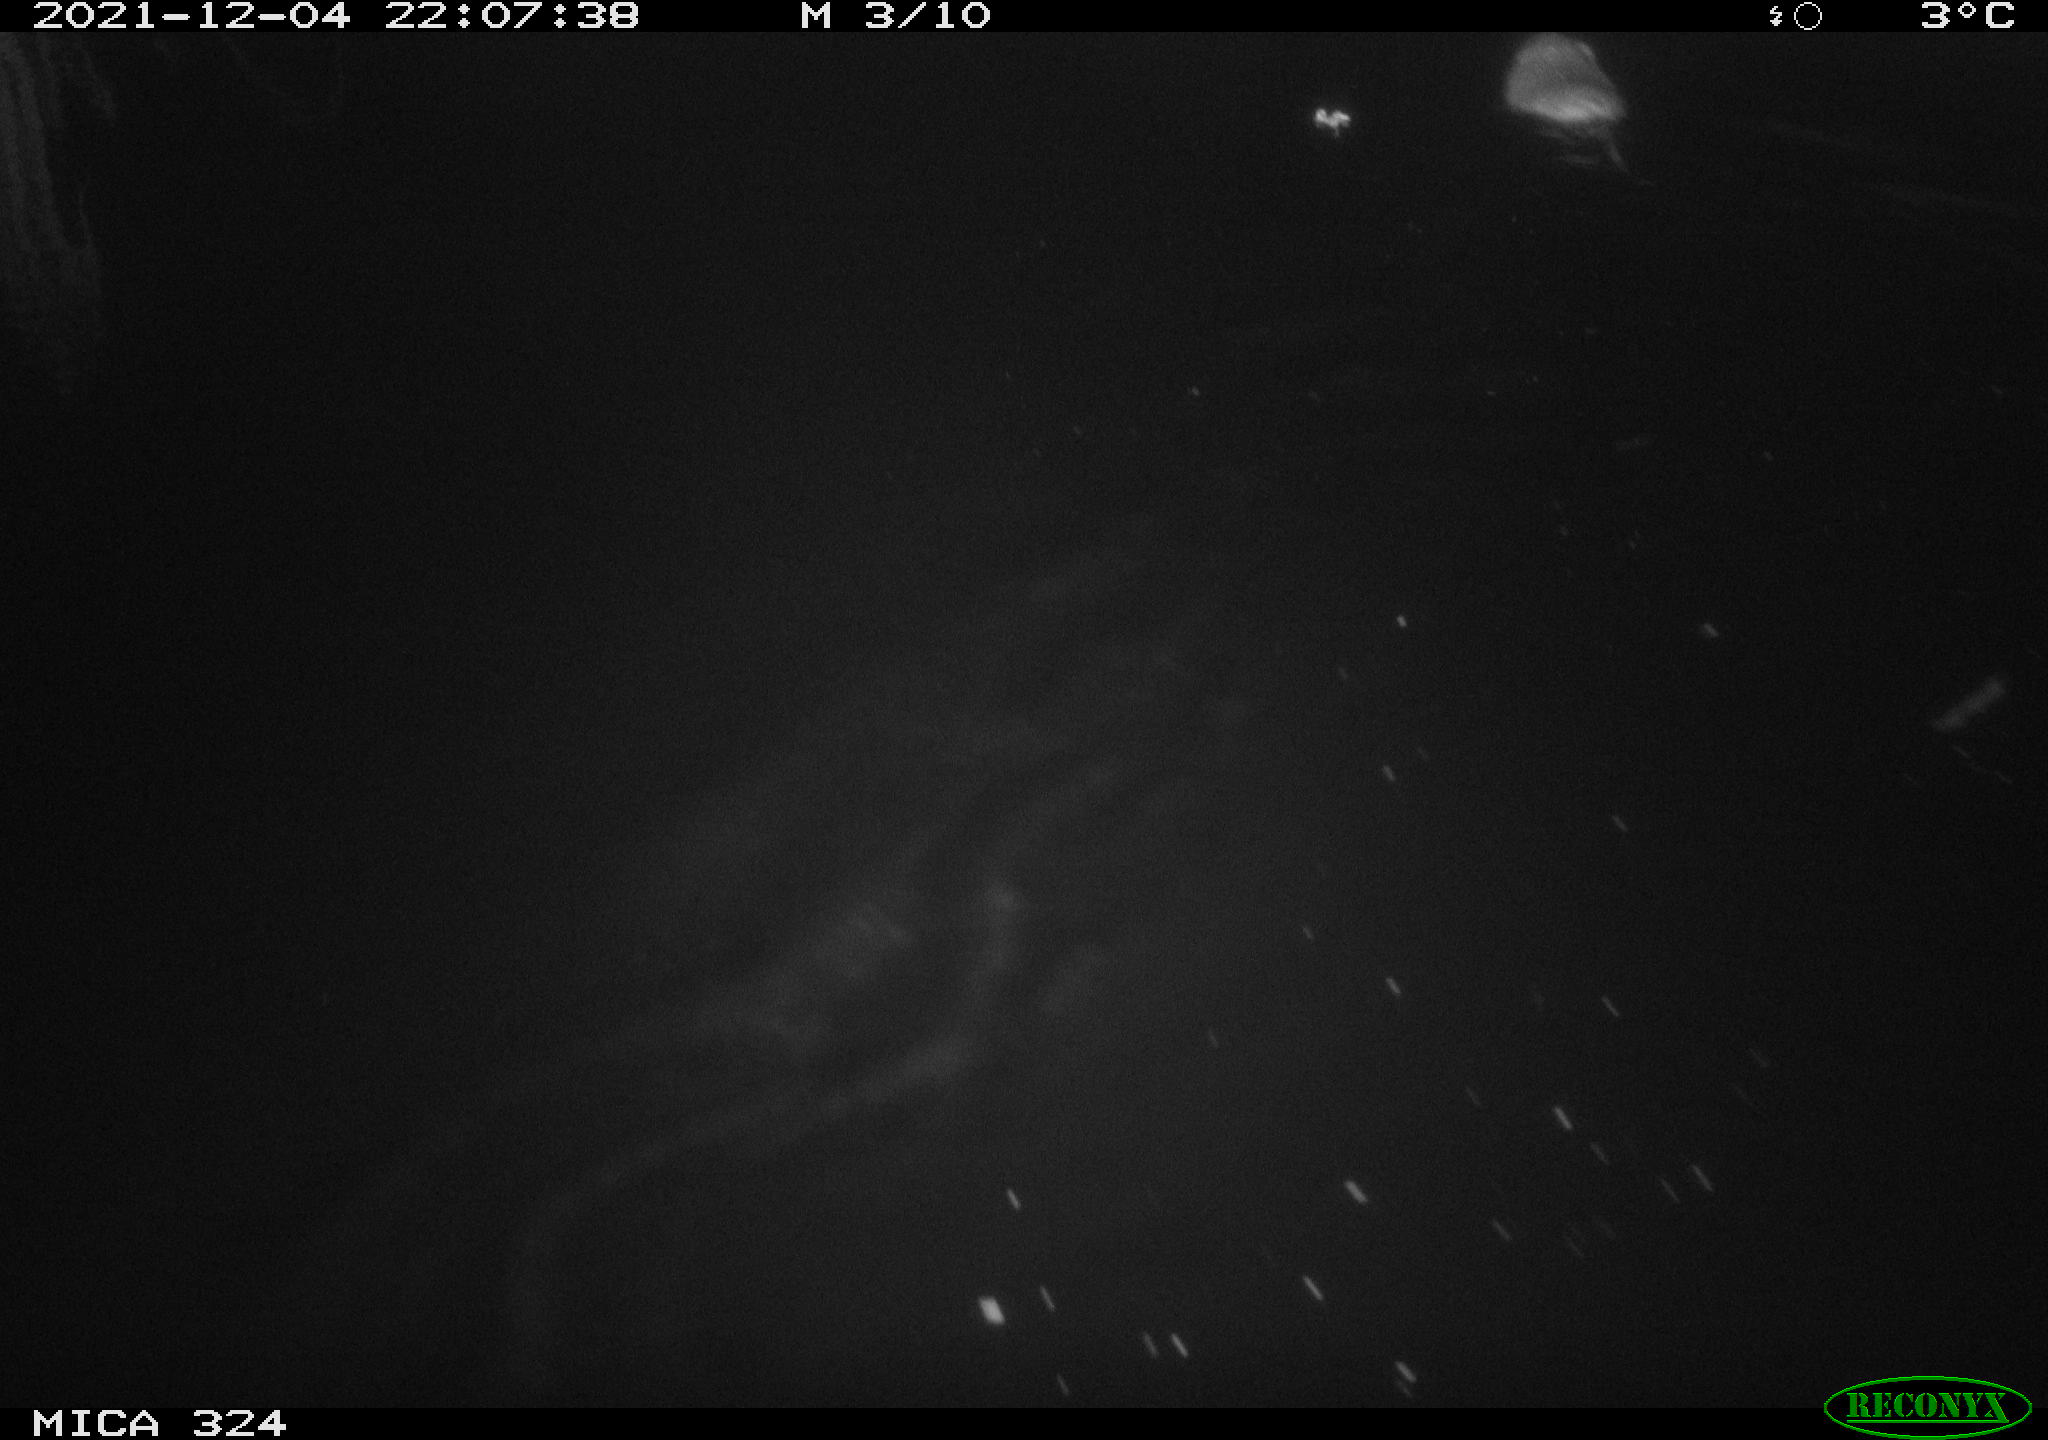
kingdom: Animalia
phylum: Chordata
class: Mammalia
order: Rodentia
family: Cricetidae
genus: Ondatra
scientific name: Ondatra zibethicus
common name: Muskrat
